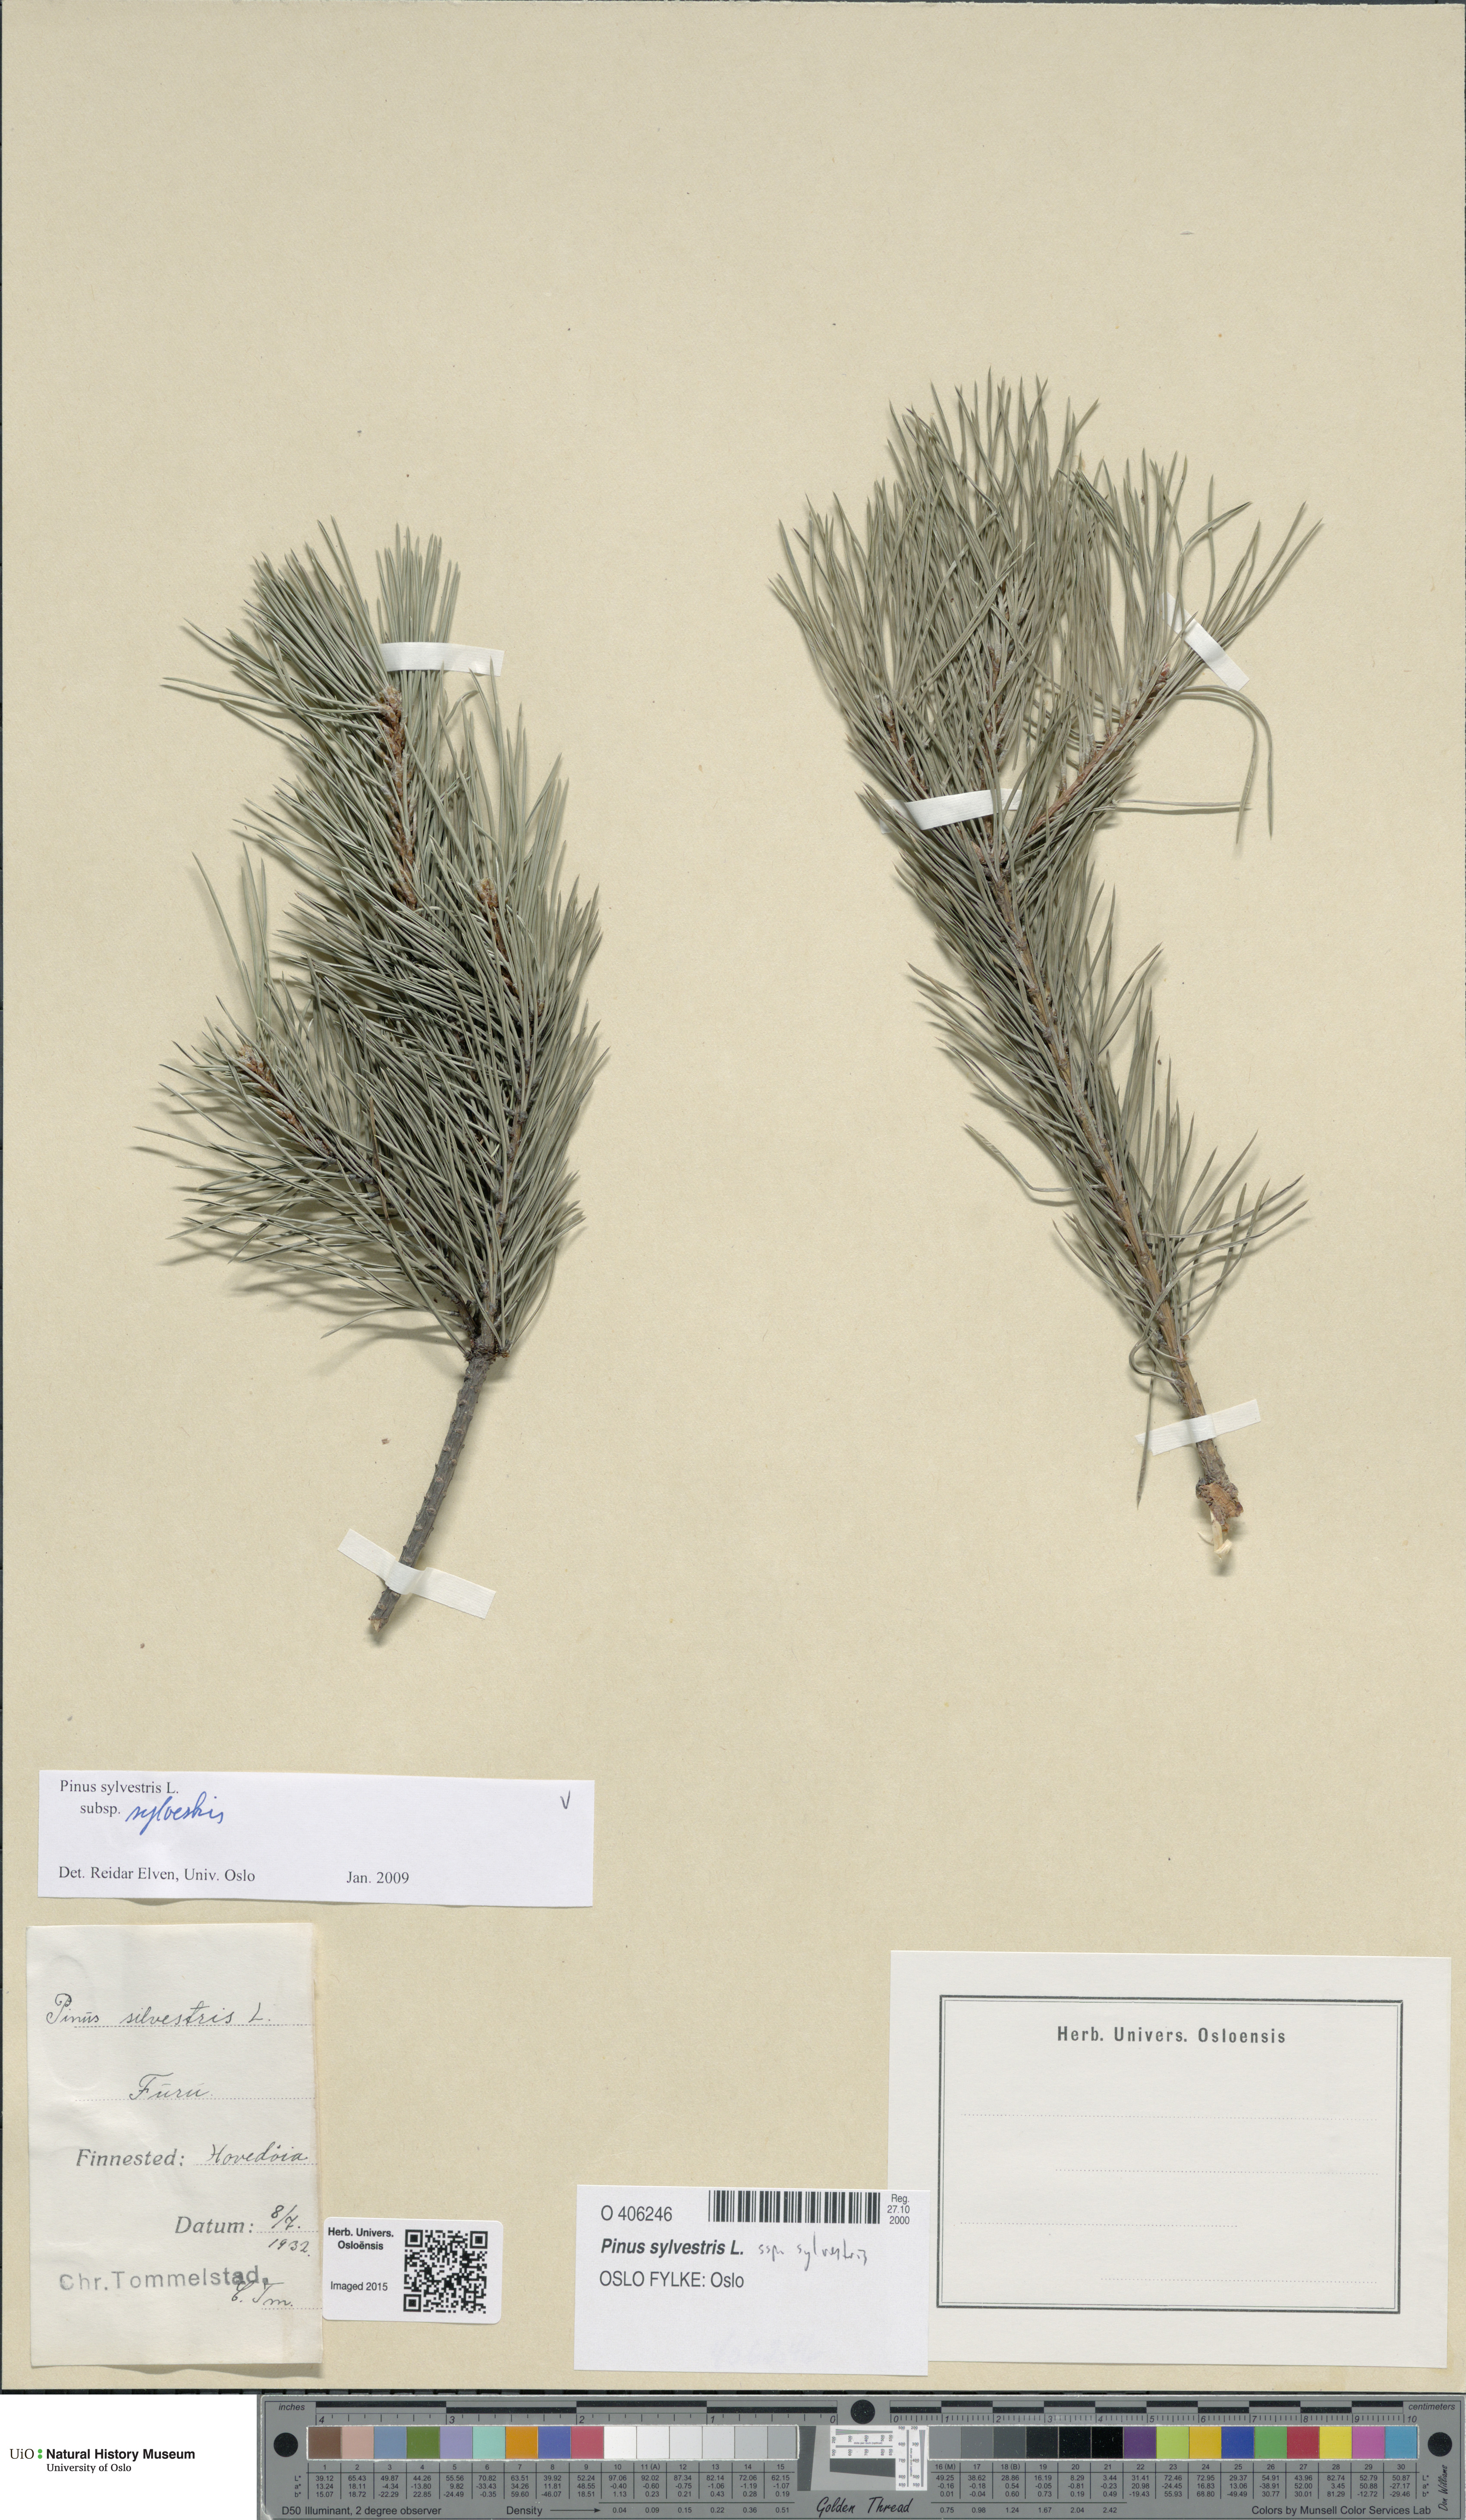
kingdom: Plantae
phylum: Tracheophyta
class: Pinopsida
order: Pinales
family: Pinaceae
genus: Pinus
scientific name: Pinus sylvestris
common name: Scots pine
